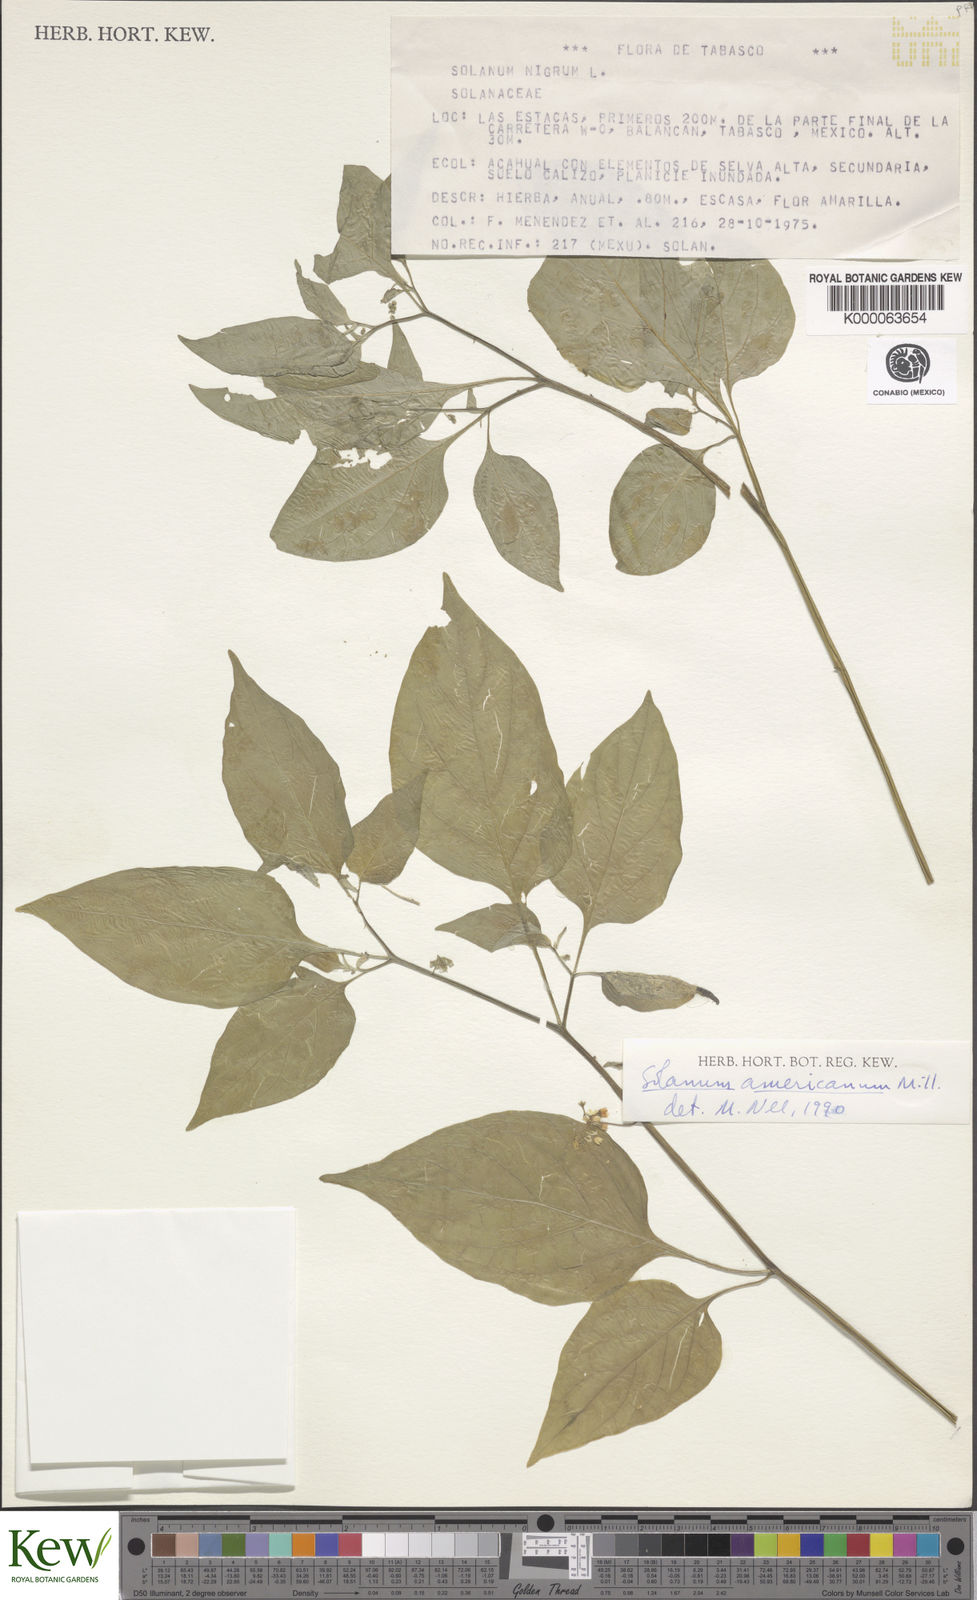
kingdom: Plantae
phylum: Tracheophyta
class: Magnoliopsida
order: Solanales
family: Solanaceae
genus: Solanum
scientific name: Solanum americanum
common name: American black nightshade
